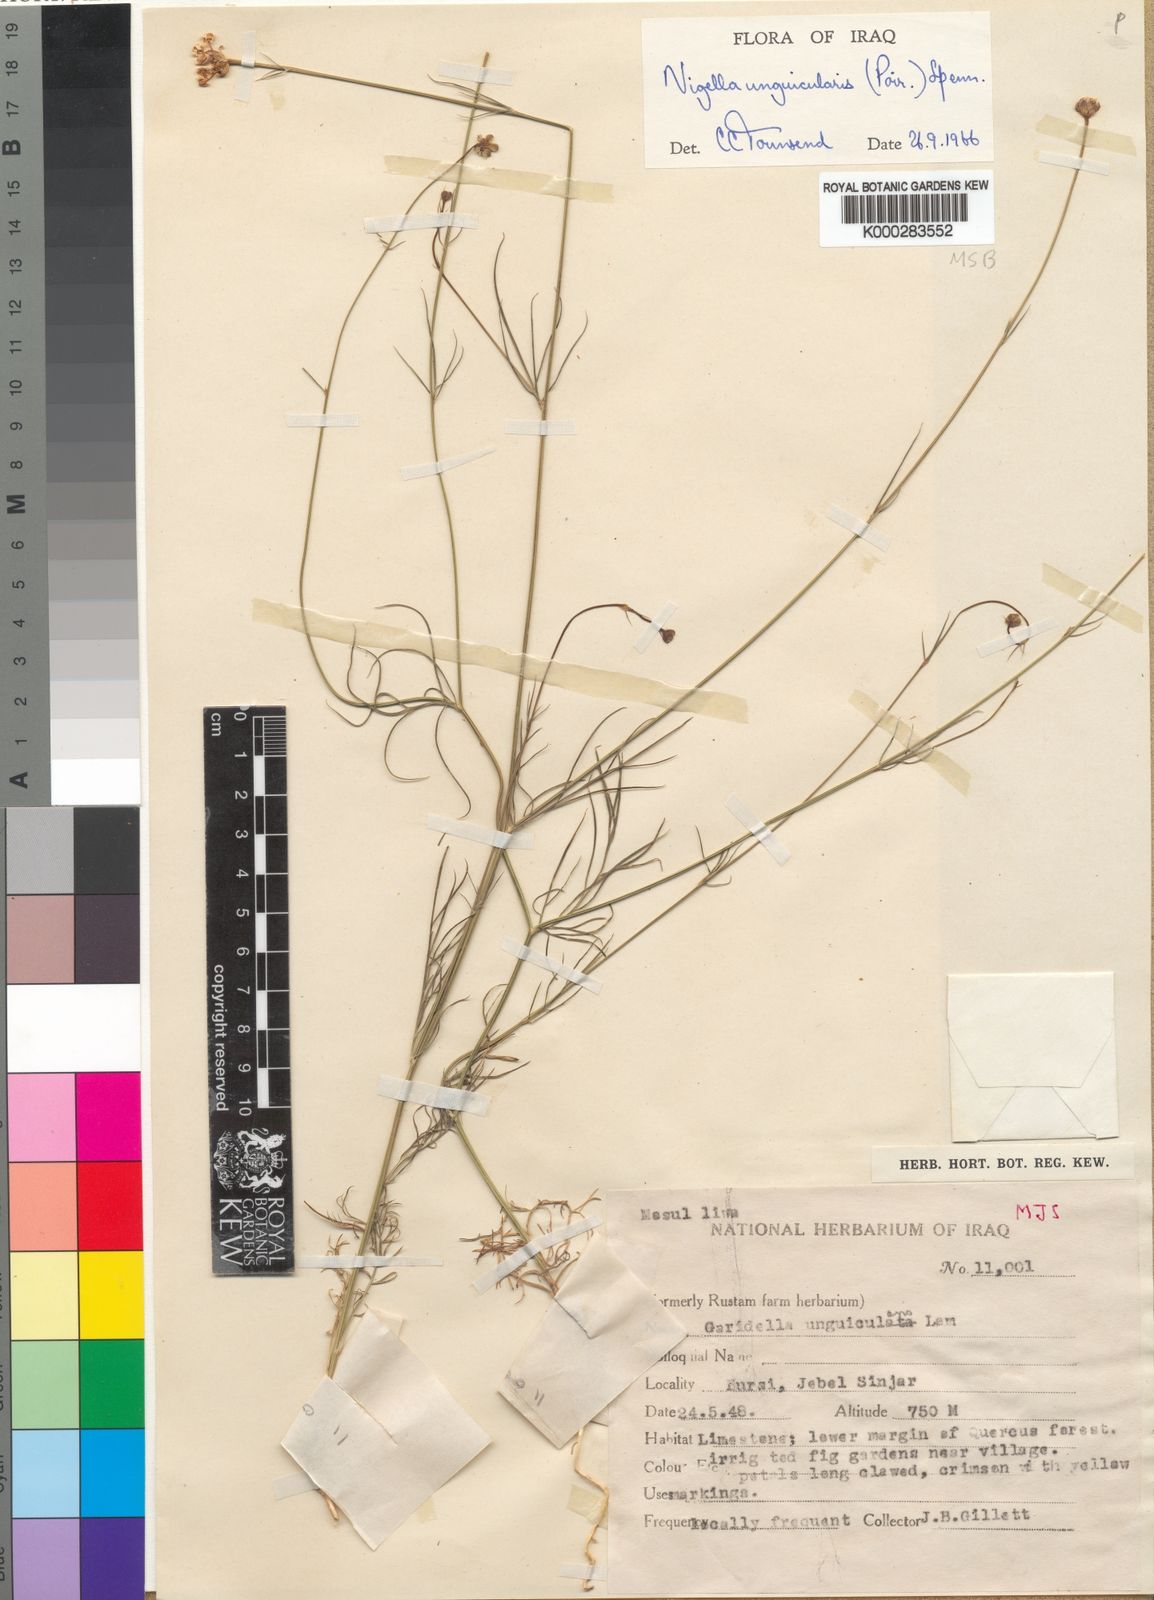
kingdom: Plantae
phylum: Tracheophyta
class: Magnoliopsida
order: Ranunculales
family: Ranunculaceae
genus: Garidella
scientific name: Garidella unguicularis
